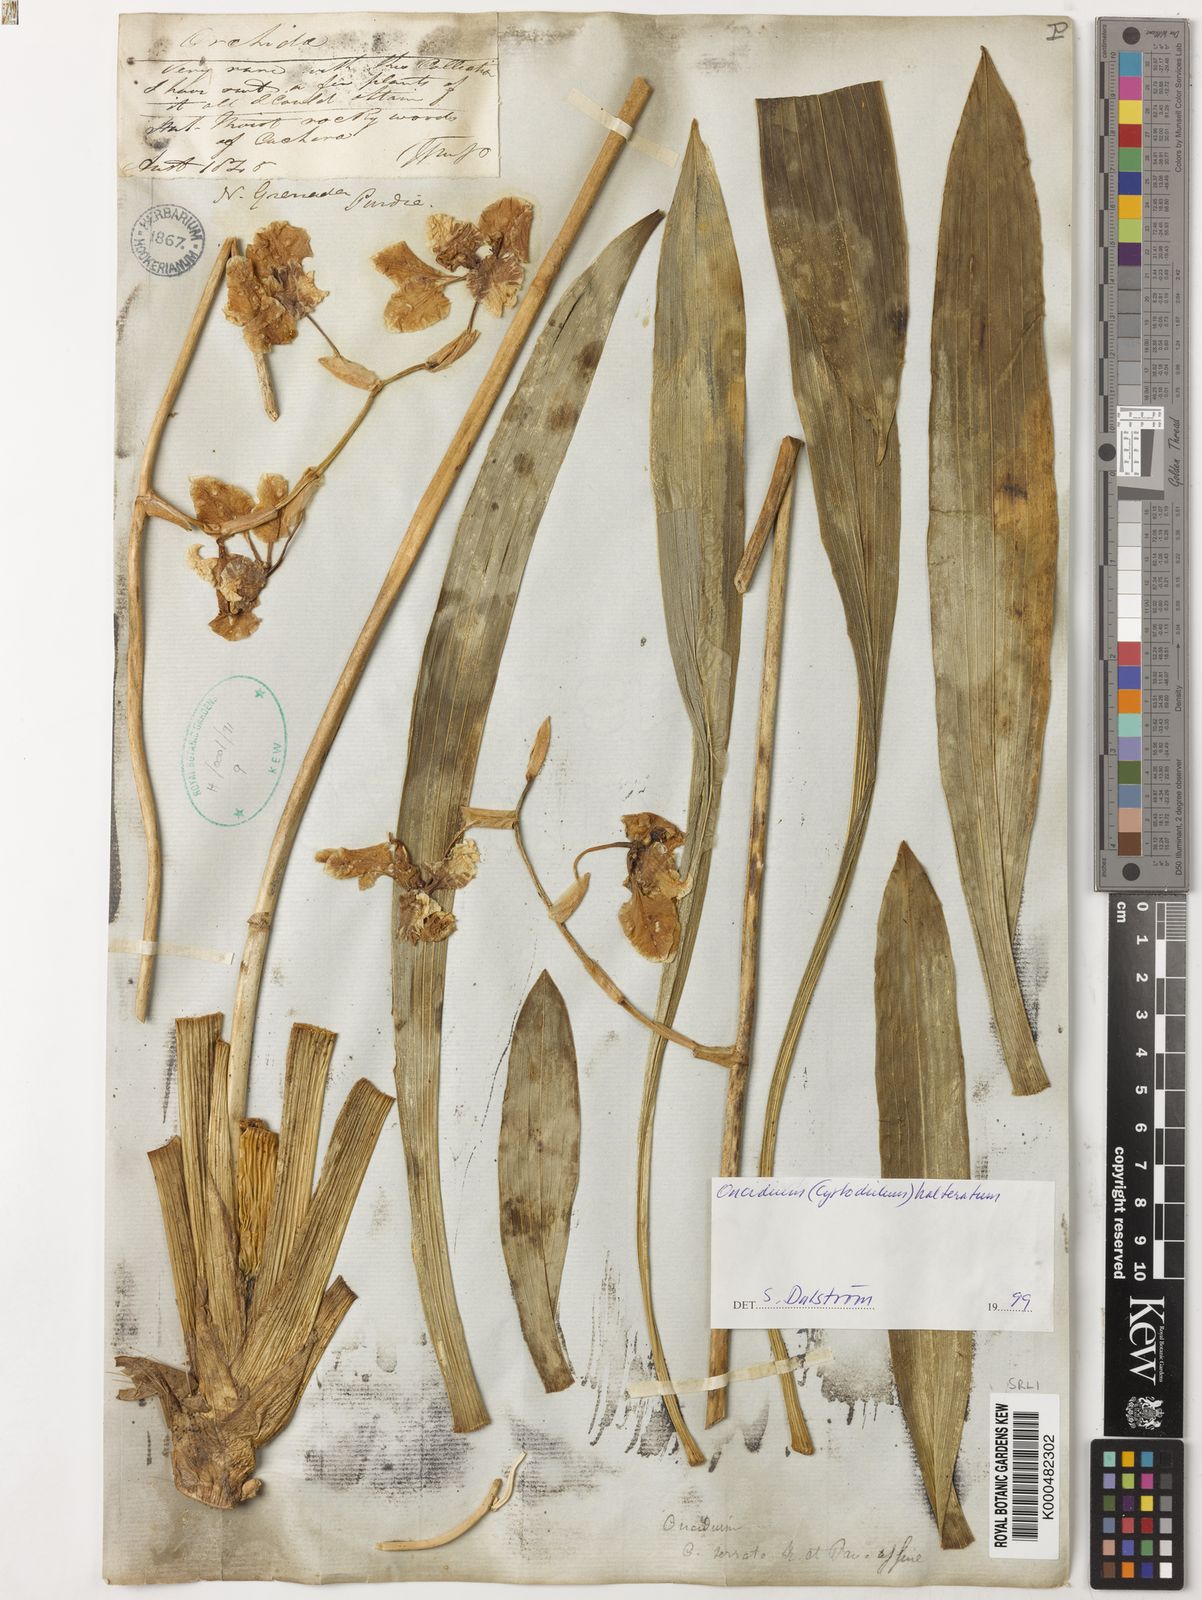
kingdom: Plantae
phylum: Tracheophyta
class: Liliopsida
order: Asparagales
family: Orchidaceae
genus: Cyrtochilum
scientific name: Cyrtochilum halteratum
